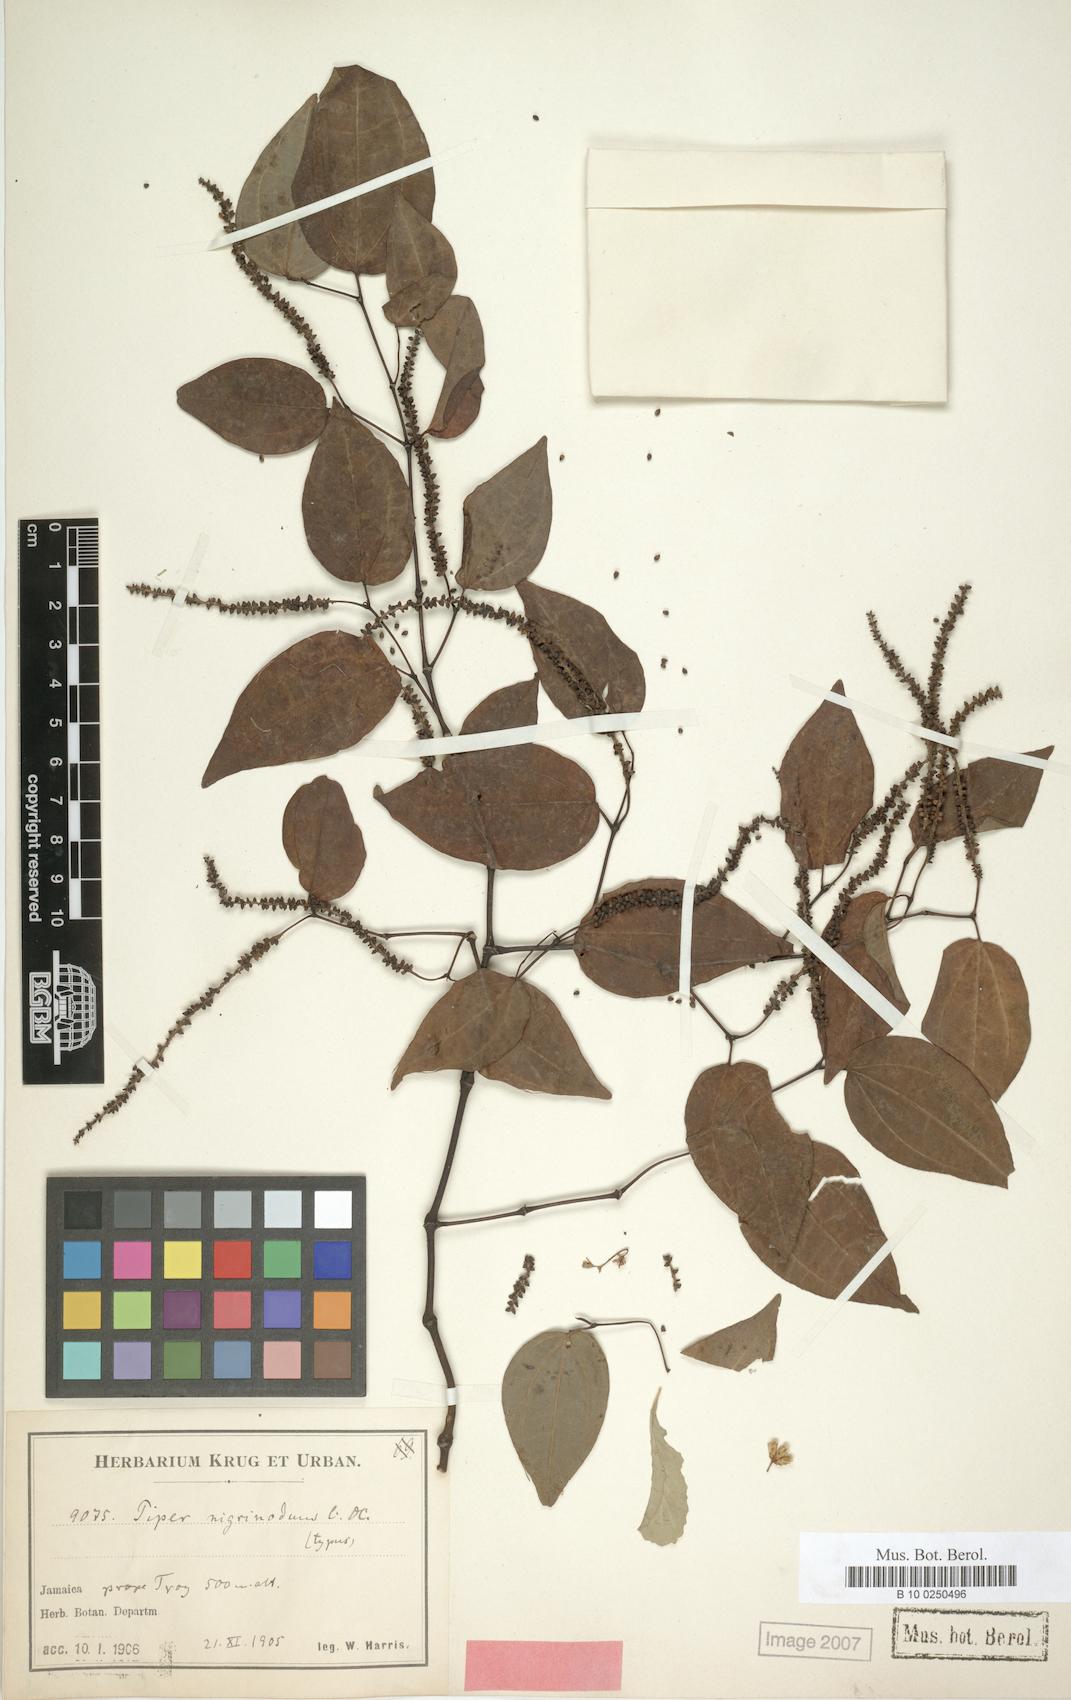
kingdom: Plantae
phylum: Tracheophyta
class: Magnoliopsida
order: Piperales
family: Piperaceae
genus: Piper
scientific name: Piper amalago
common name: Pepper-elder
